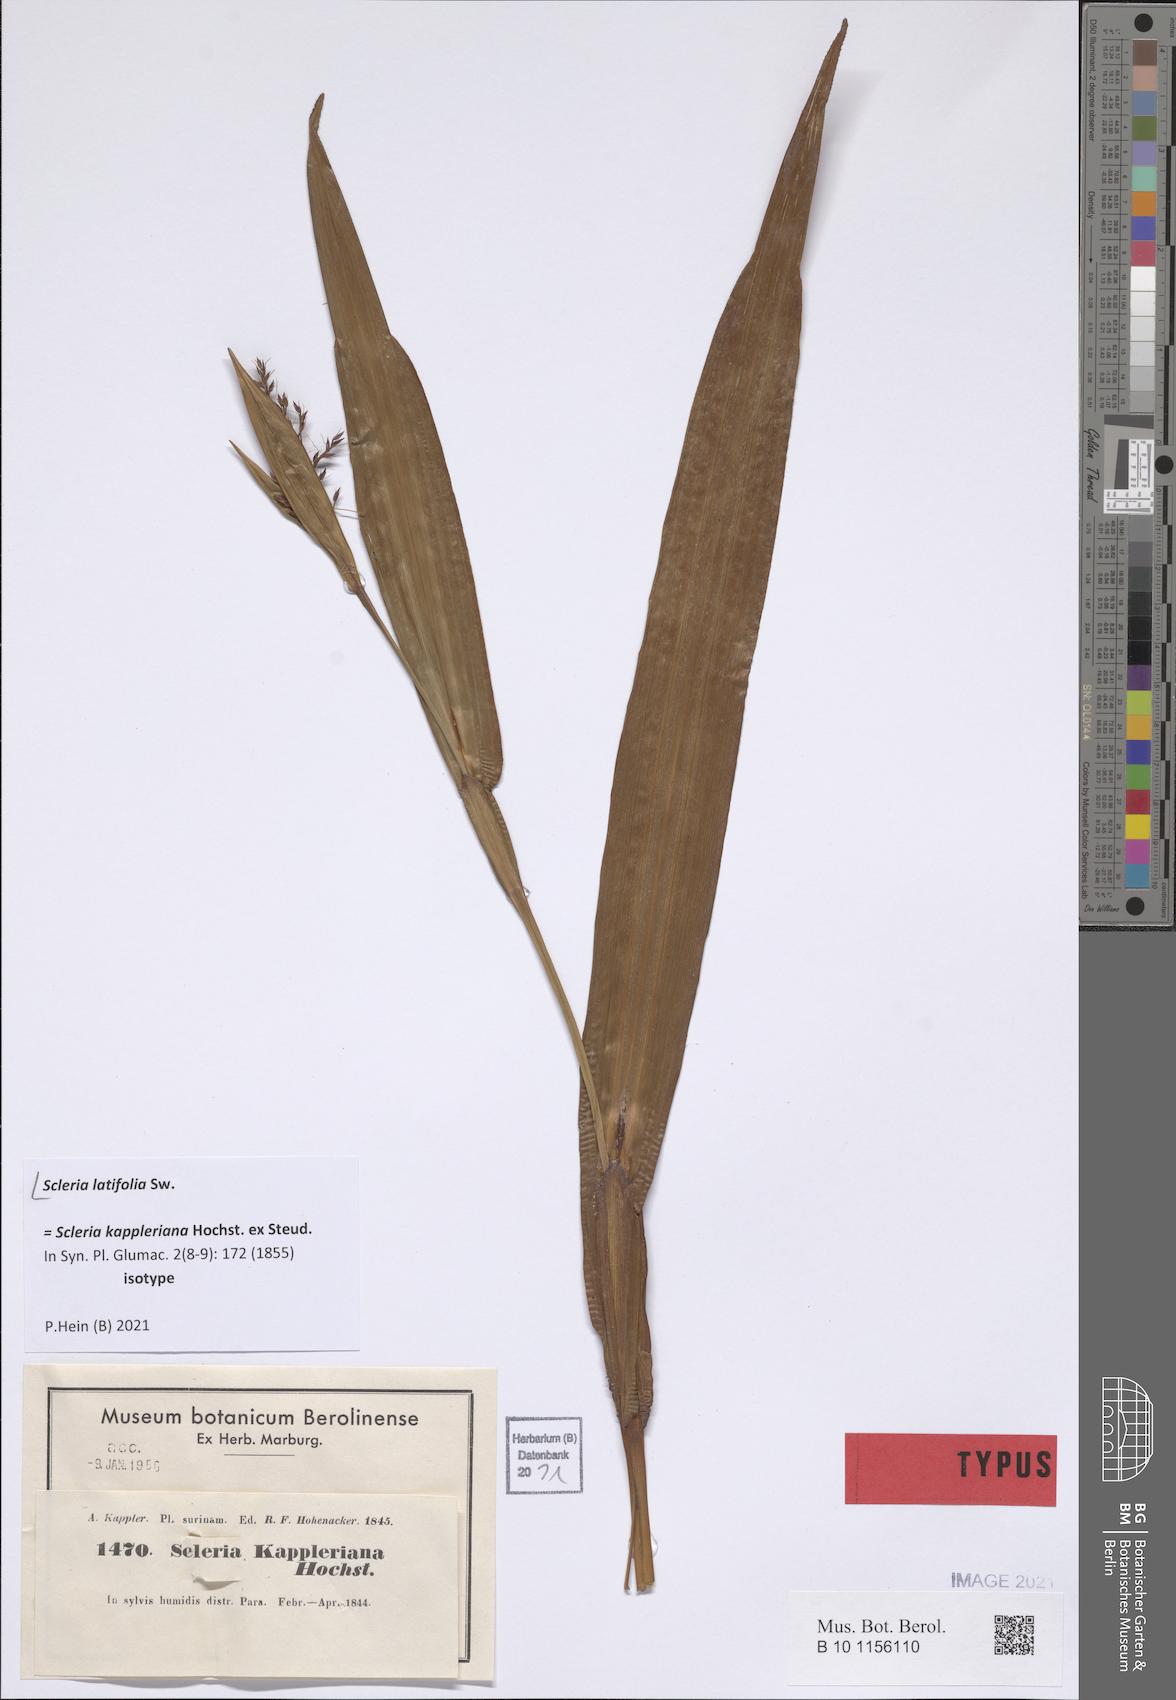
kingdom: Plantae
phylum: Tracheophyta
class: Liliopsida
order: Poales
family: Cyperaceae
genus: Scleria
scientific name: Scleria latifolia
